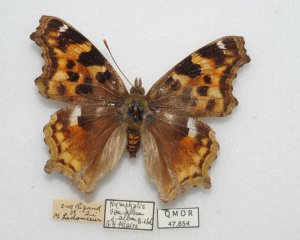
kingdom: Animalia
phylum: Arthropoda
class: Insecta
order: Lepidoptera
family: Nymphalidae
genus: Polygonia
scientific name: Polygonia vaualbum
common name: Compton Tortoiseshell
